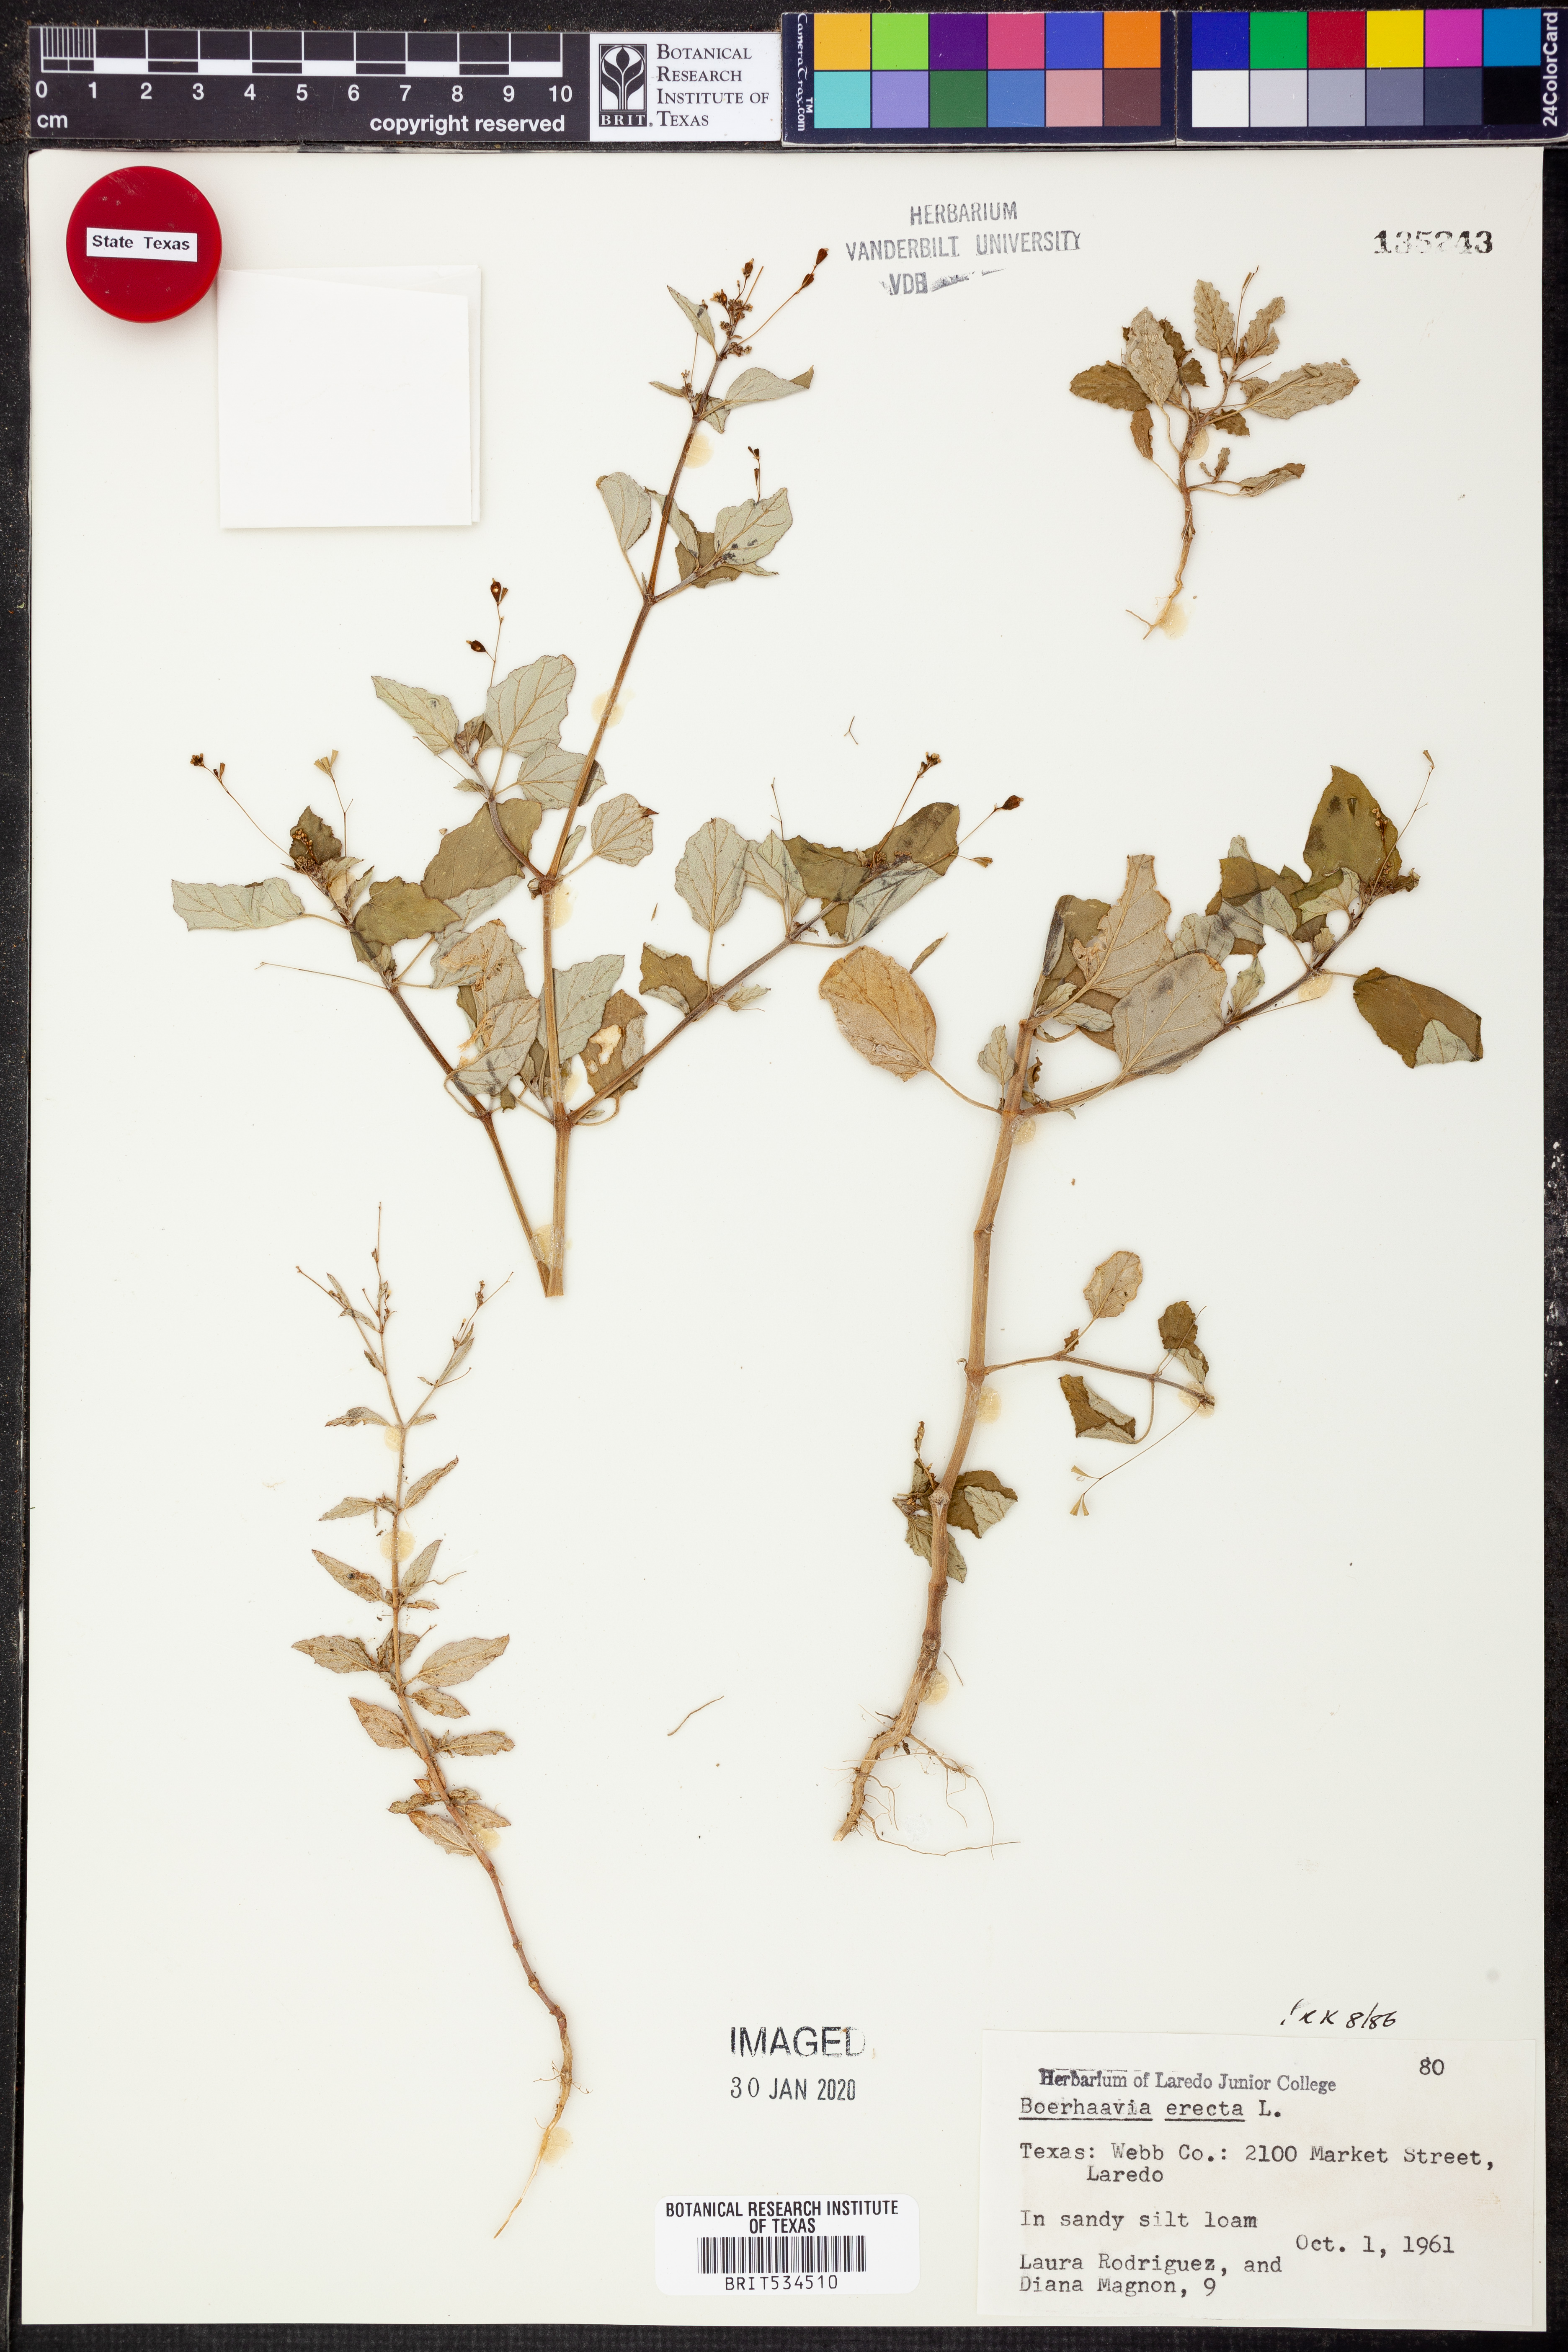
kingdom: Plantae
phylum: Tracheophyta
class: Magnoliopsida
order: Caryophyllales
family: Nyctaginaceae
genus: Boerhavia
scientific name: Boerhavia erecta
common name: Erect spiderling
